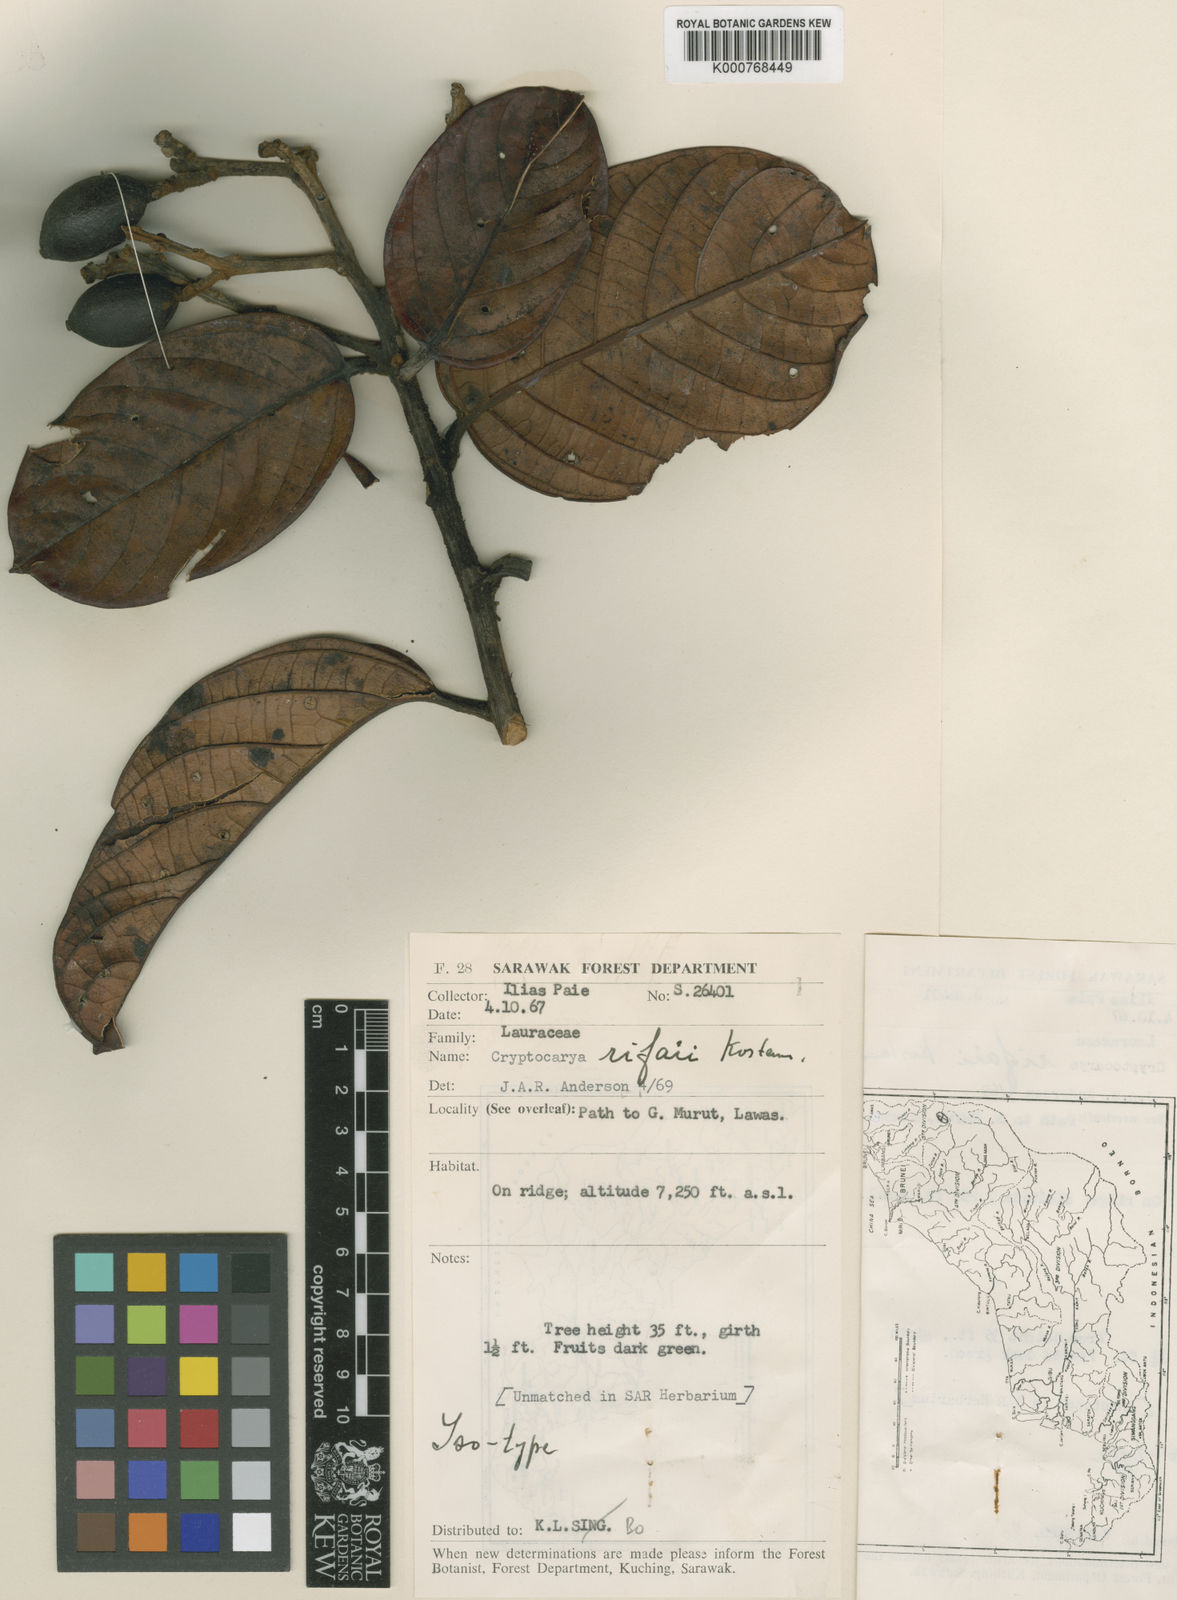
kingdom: Plantae
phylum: Tracheophyta
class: Magnoliopsida
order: Laurales
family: Lauraceae
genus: Cryptocarya
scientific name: Cryptocarya rifaii
